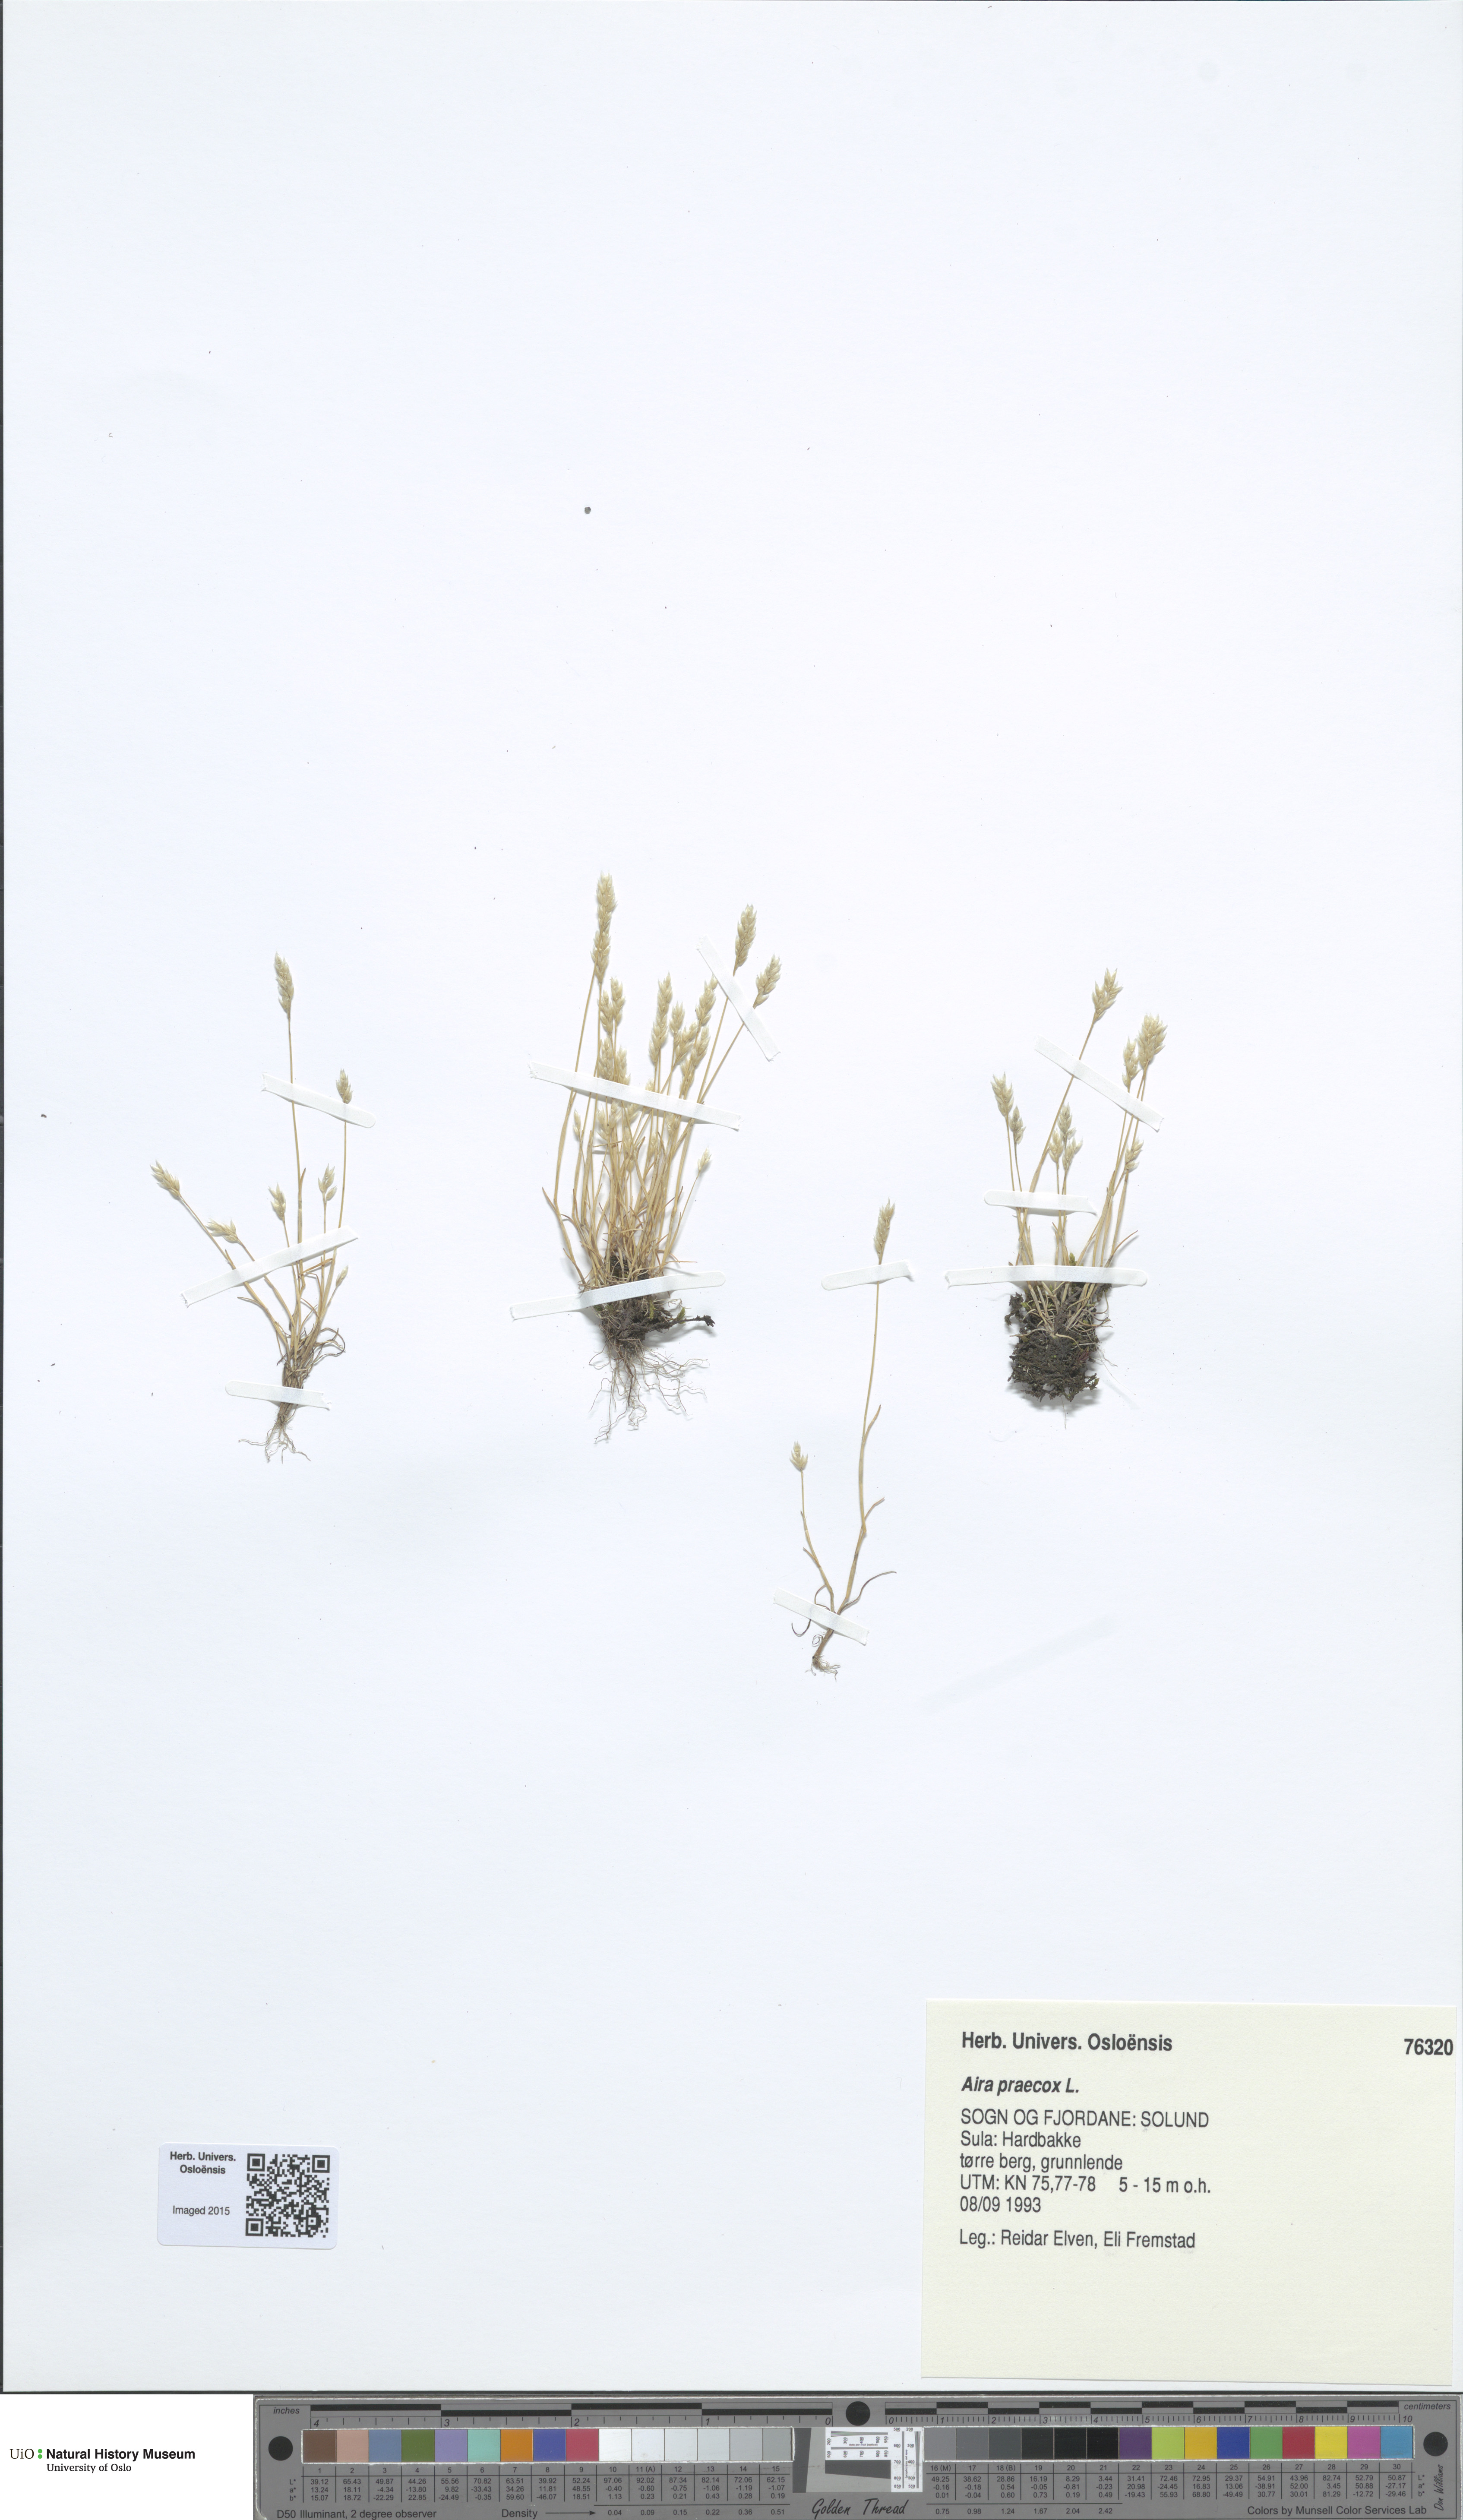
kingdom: Plantae
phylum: Tracheophyta
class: Liliopsida
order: Poales
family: Poaceae
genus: Aira
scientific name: Aira praecox
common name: Early hair-grass
